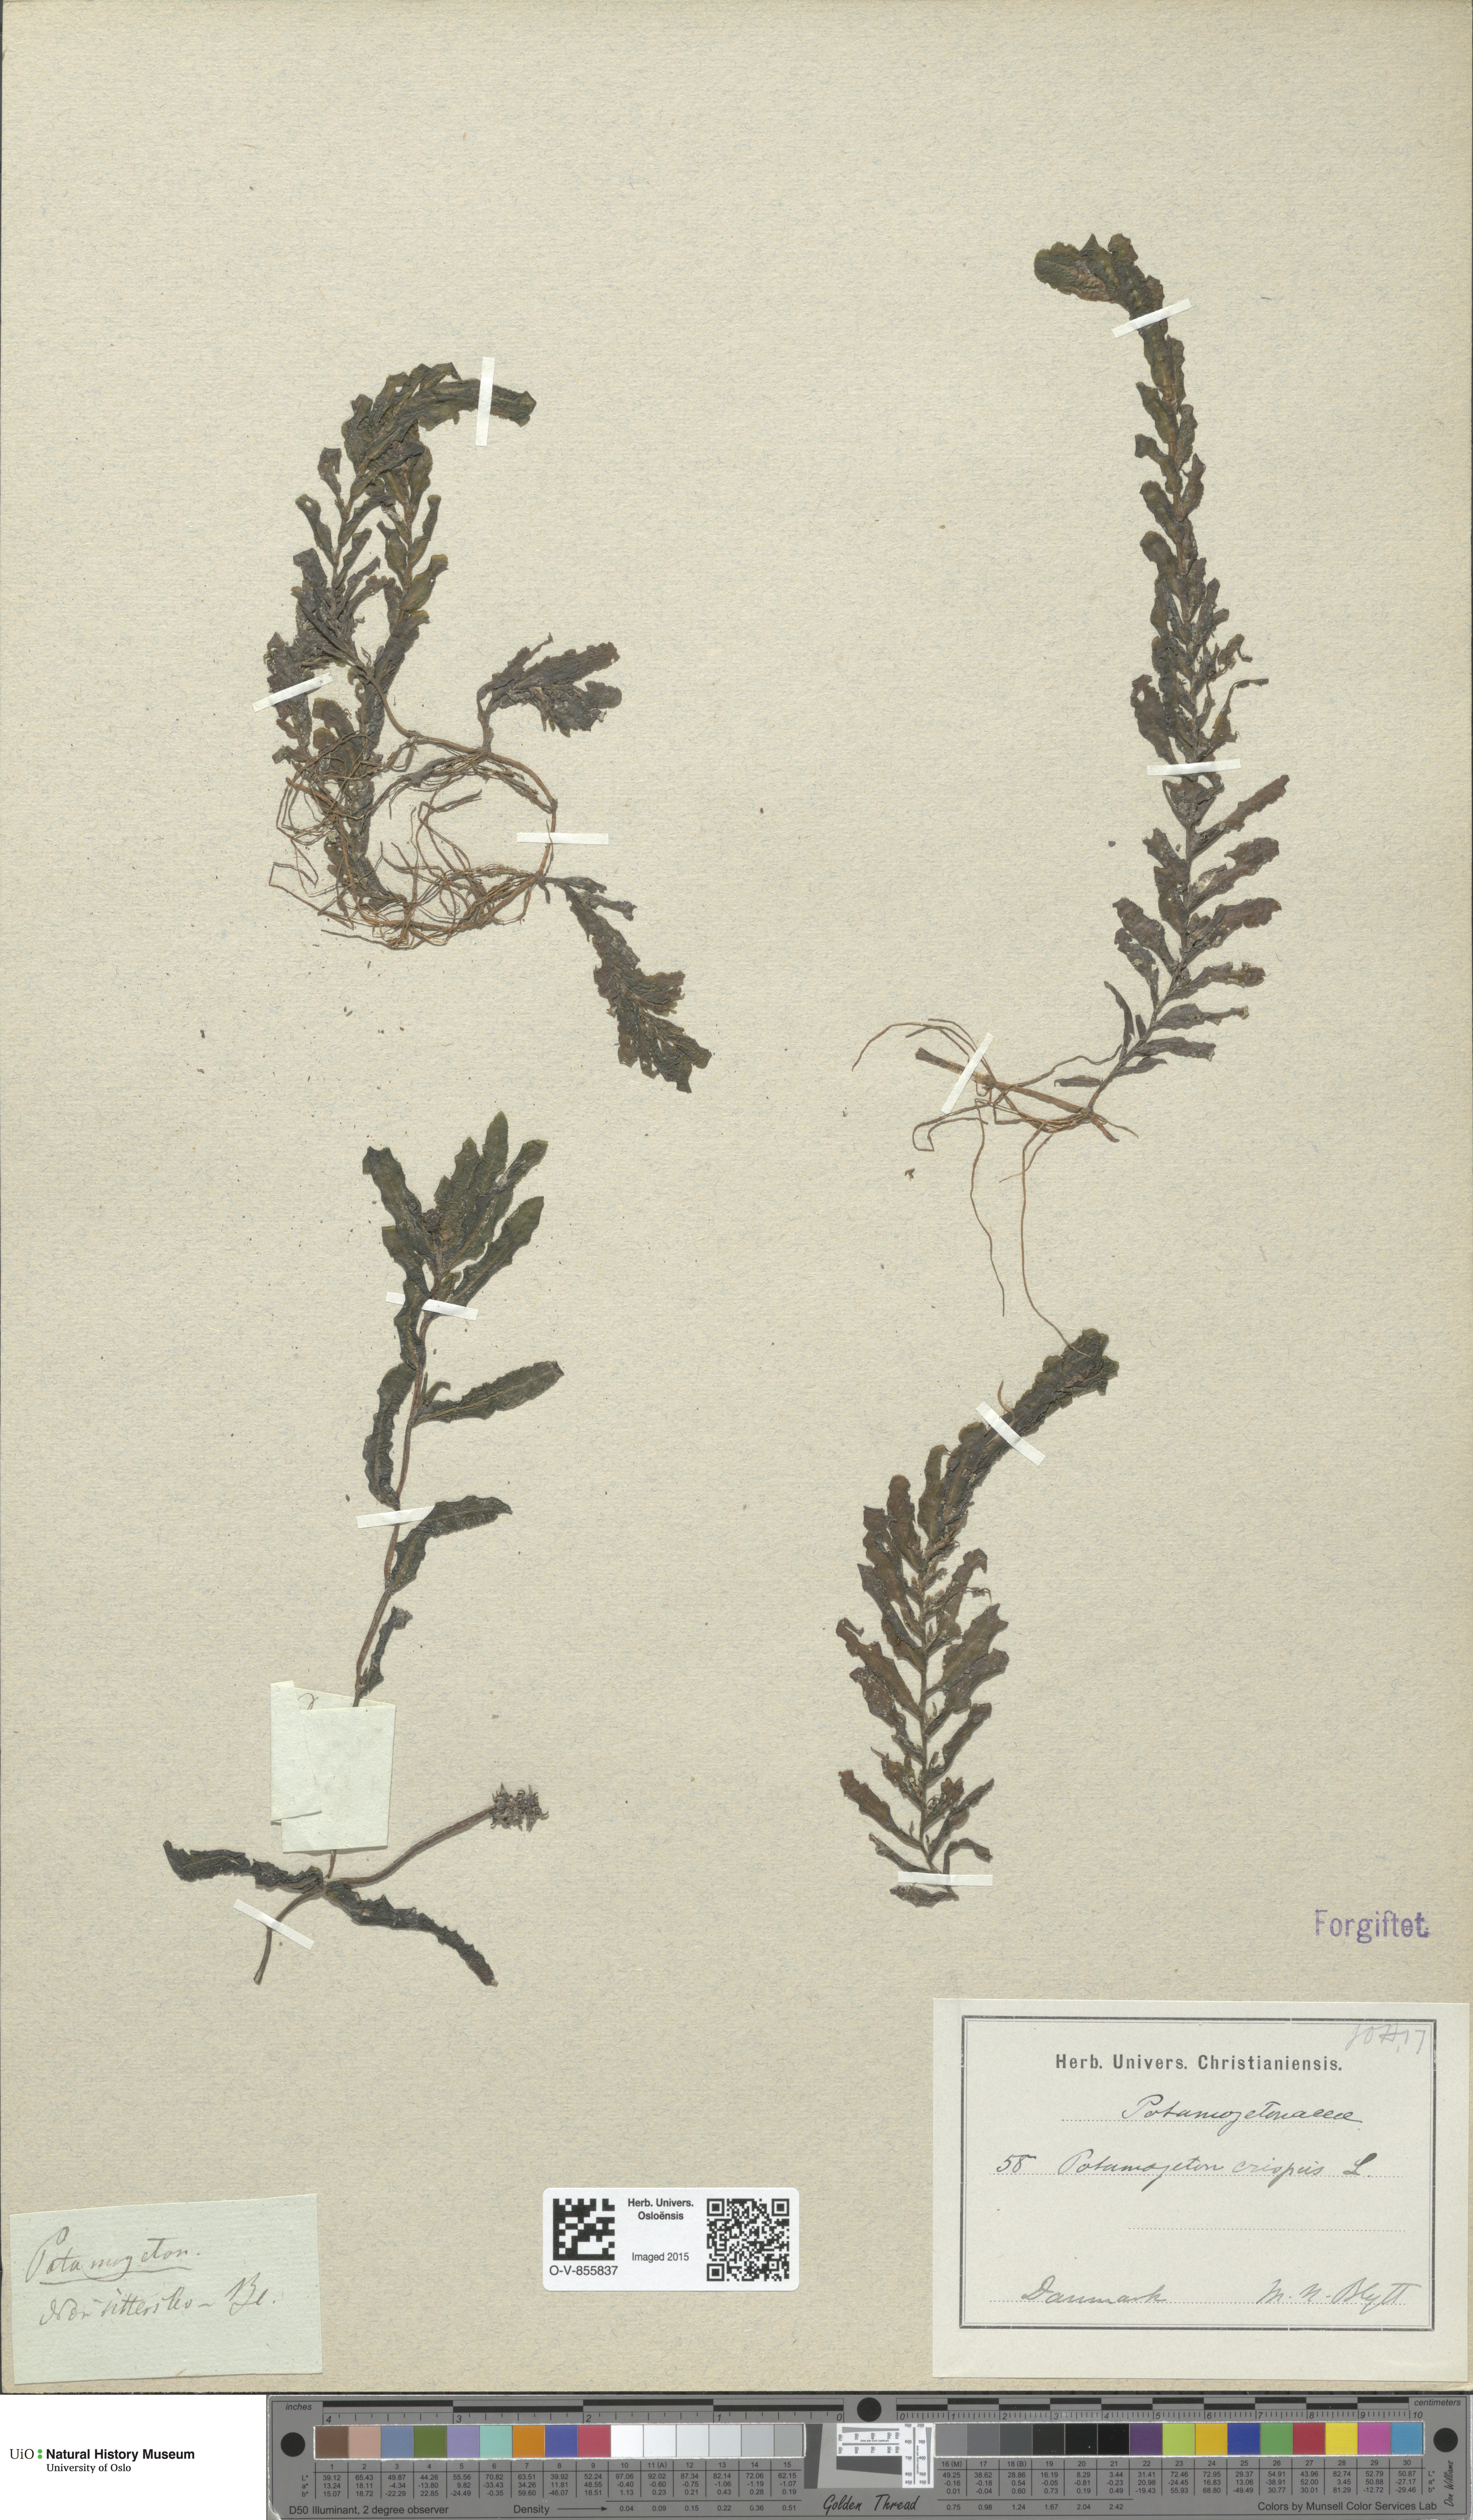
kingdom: Plantae
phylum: Tracheophyta
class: Liliopsida
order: Alismatales
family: Potamogetonaceae
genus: Potamogeton
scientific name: Potamogeton crispus
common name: Curled pondweed
